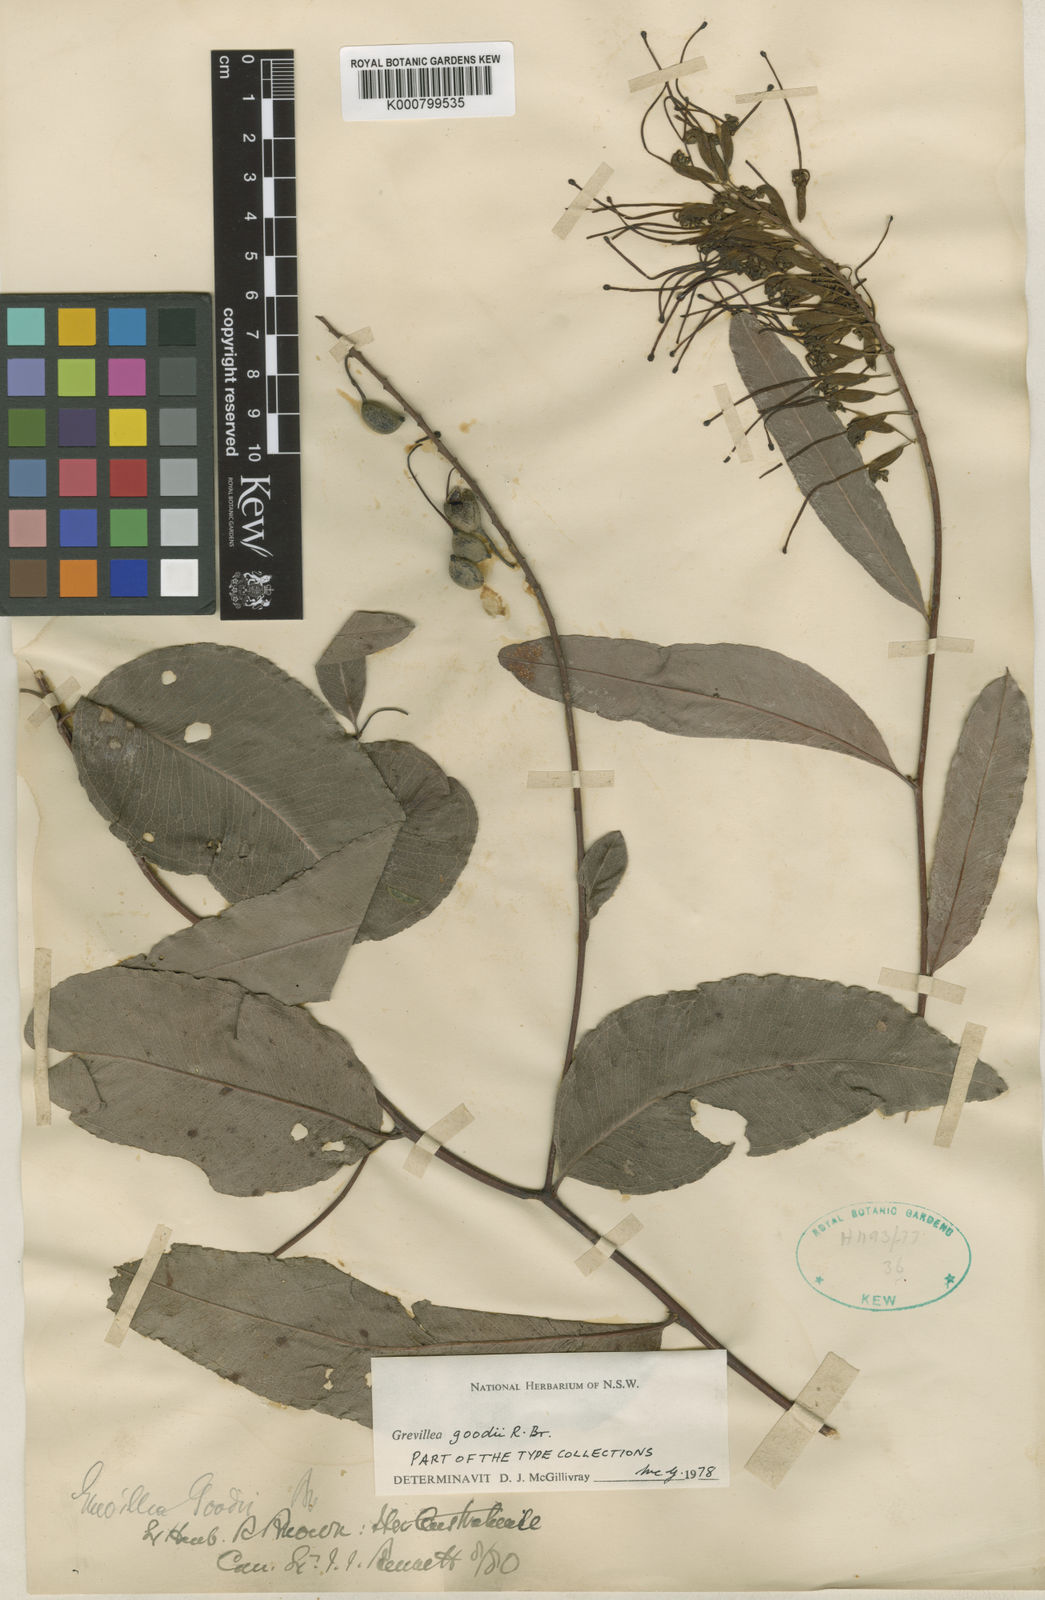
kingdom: Plantae
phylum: Tracheophyta
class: Magnoliopsida
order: Proteales
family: Proteaceae
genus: Grevillea
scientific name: Grevillea goodii
